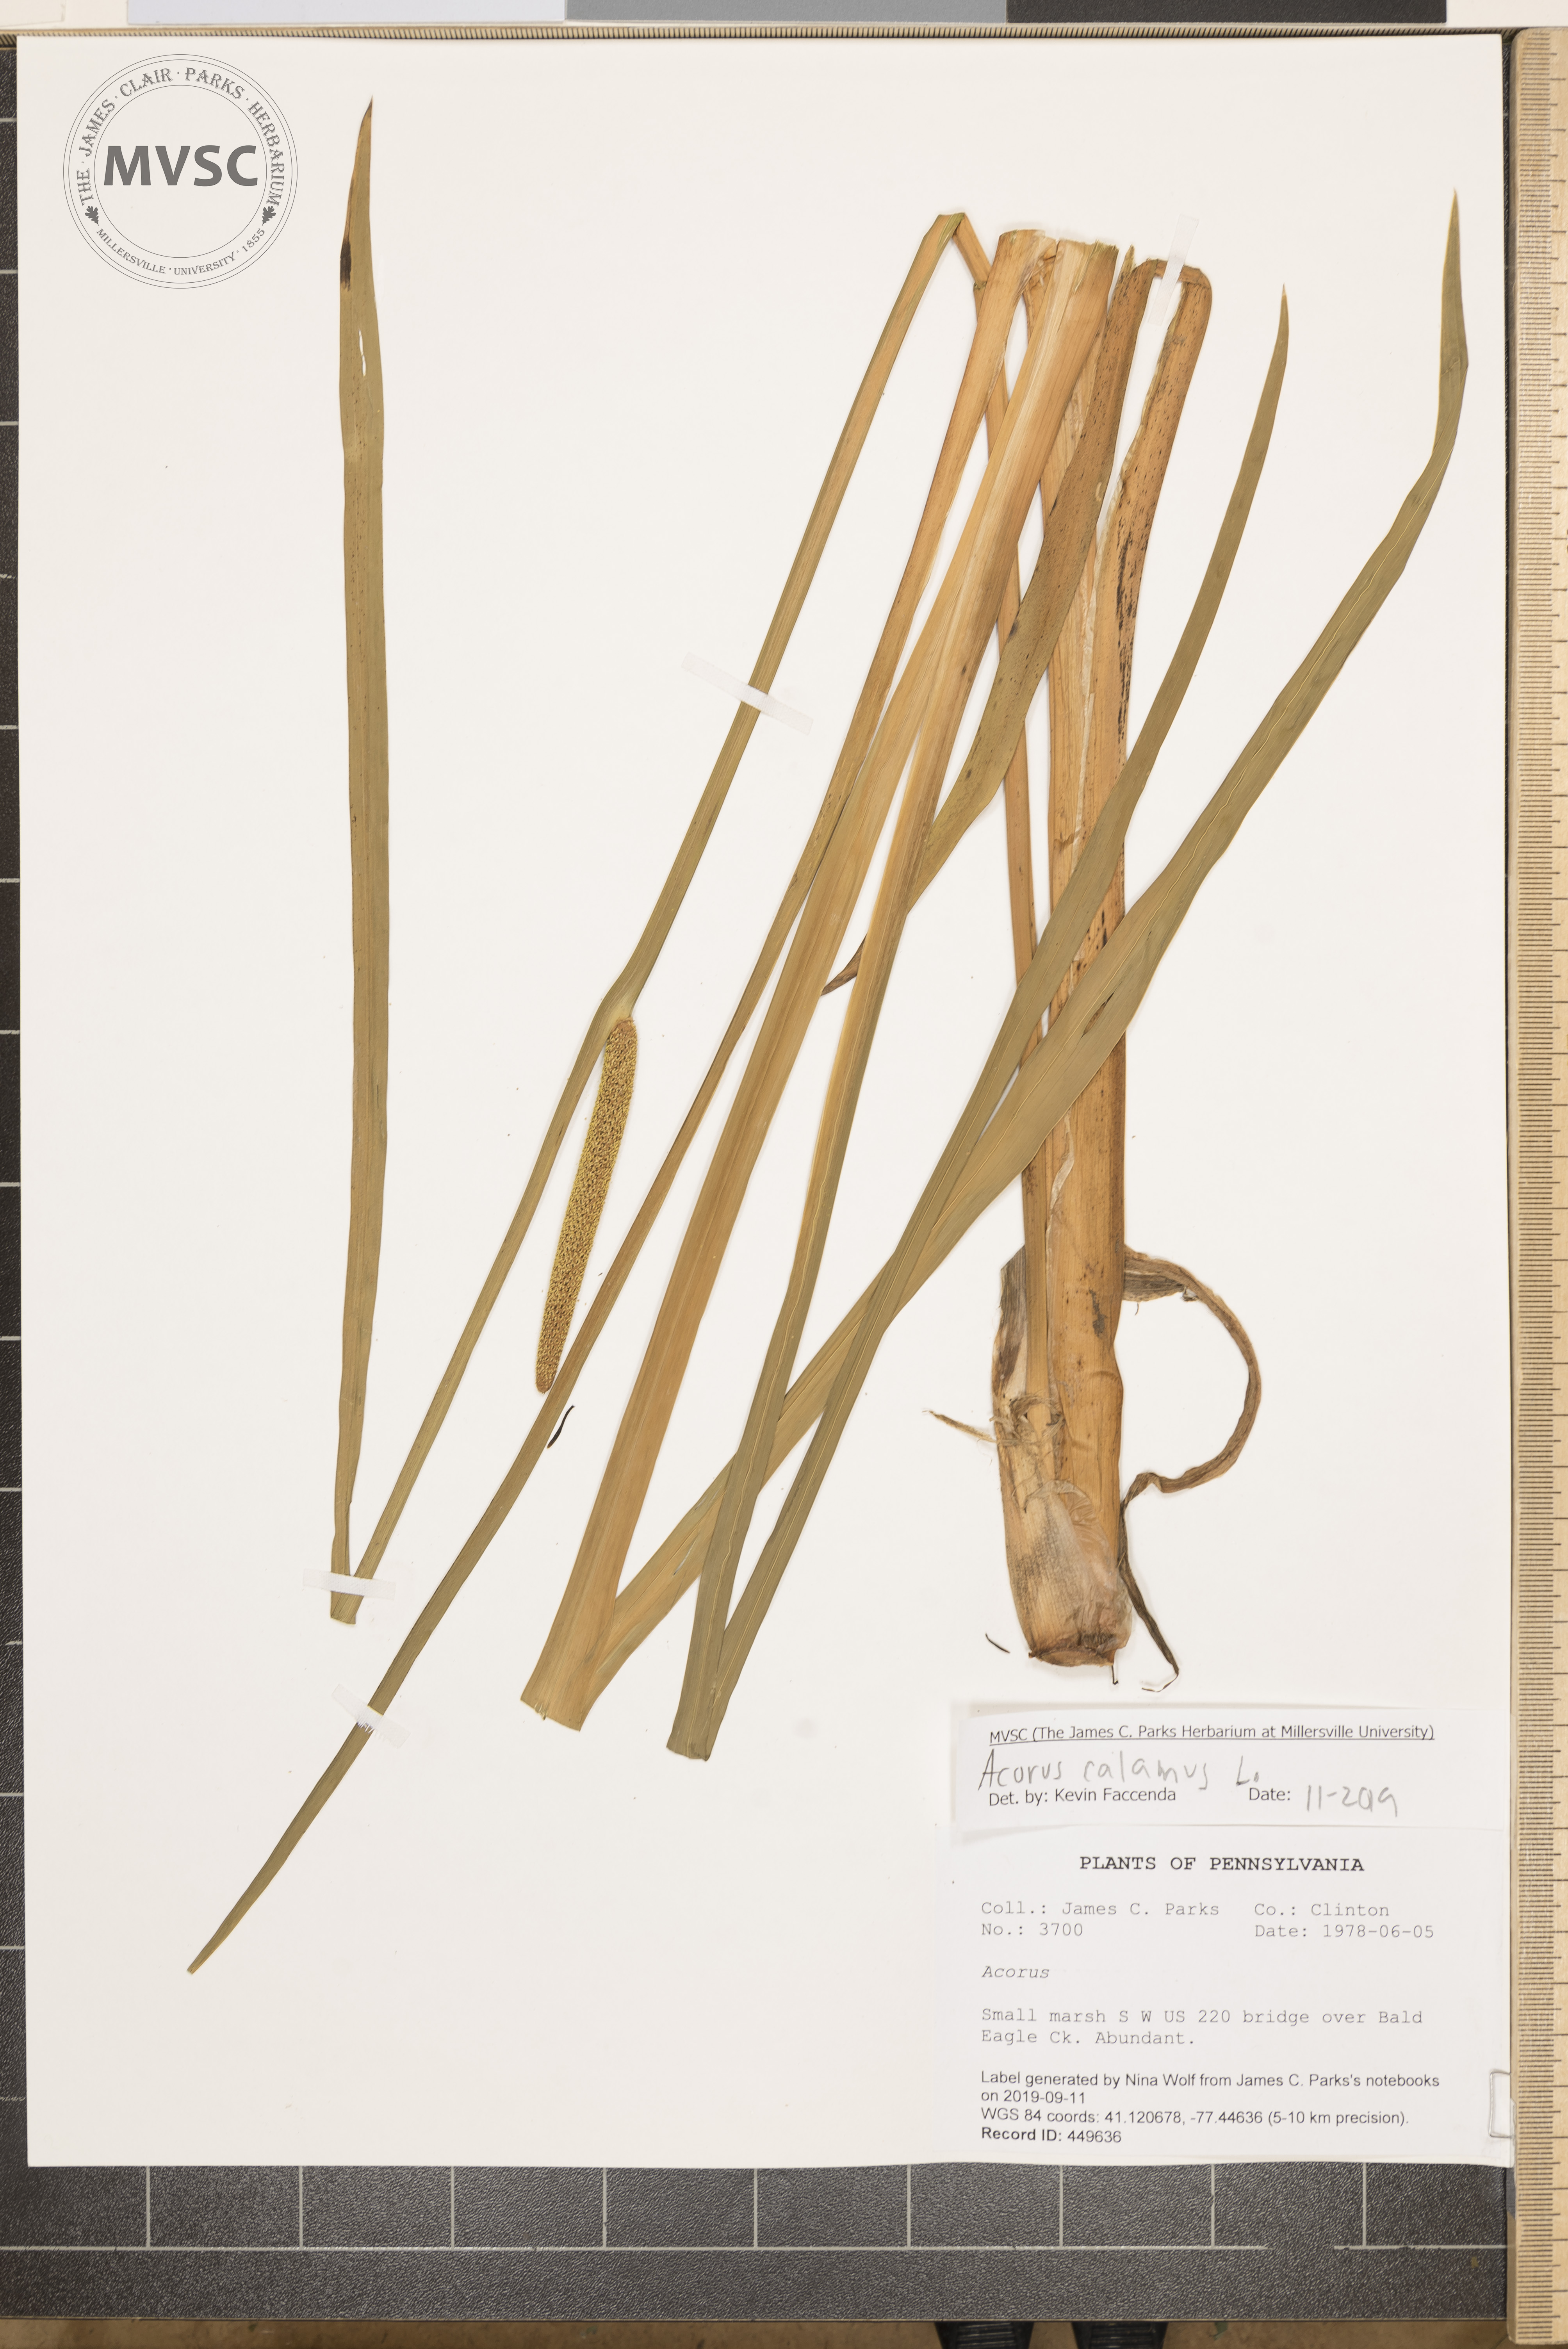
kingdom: Plantae
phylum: Tracheophyta
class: Liliopsida
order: Acorales
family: Acoraceae
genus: Acorus
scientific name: Acorus calamus
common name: Sweet-flag
